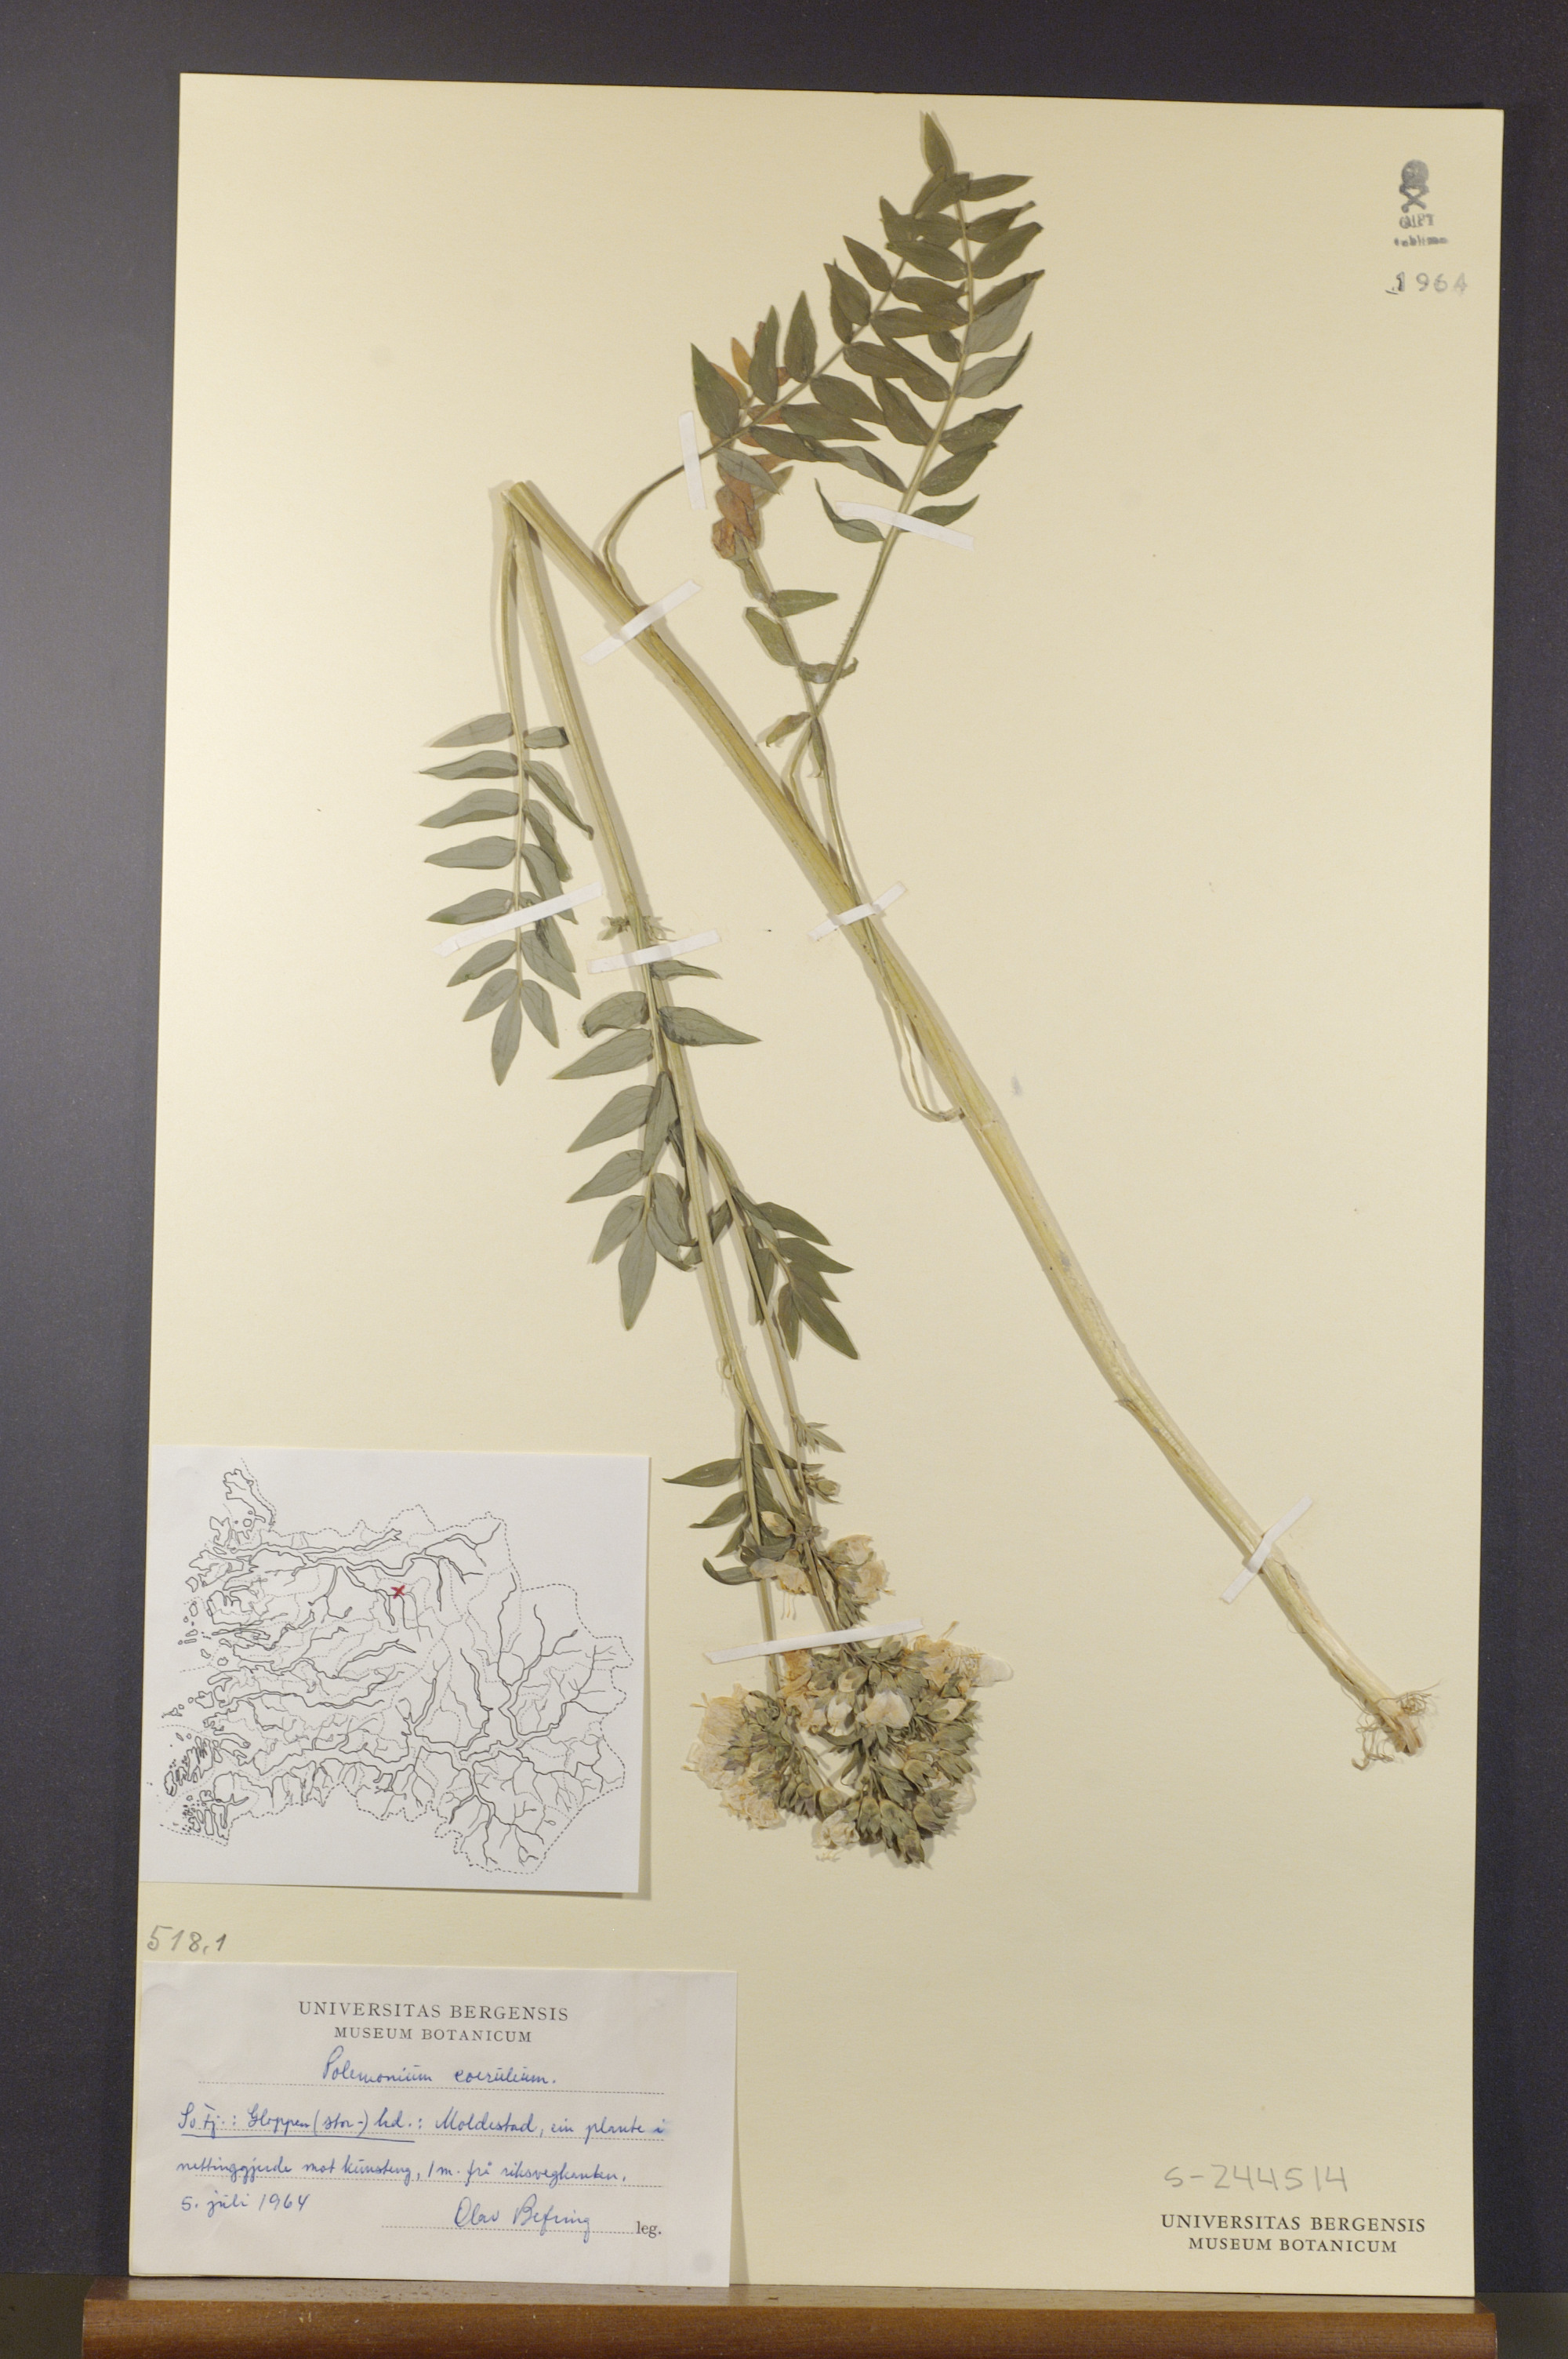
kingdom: Plantae
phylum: Tracheophyta
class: Magnoliopsida
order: Ericales
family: Polemoniaceae
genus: Polemonium
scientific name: Polemonium caeruleum
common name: Jacob's-ladder
